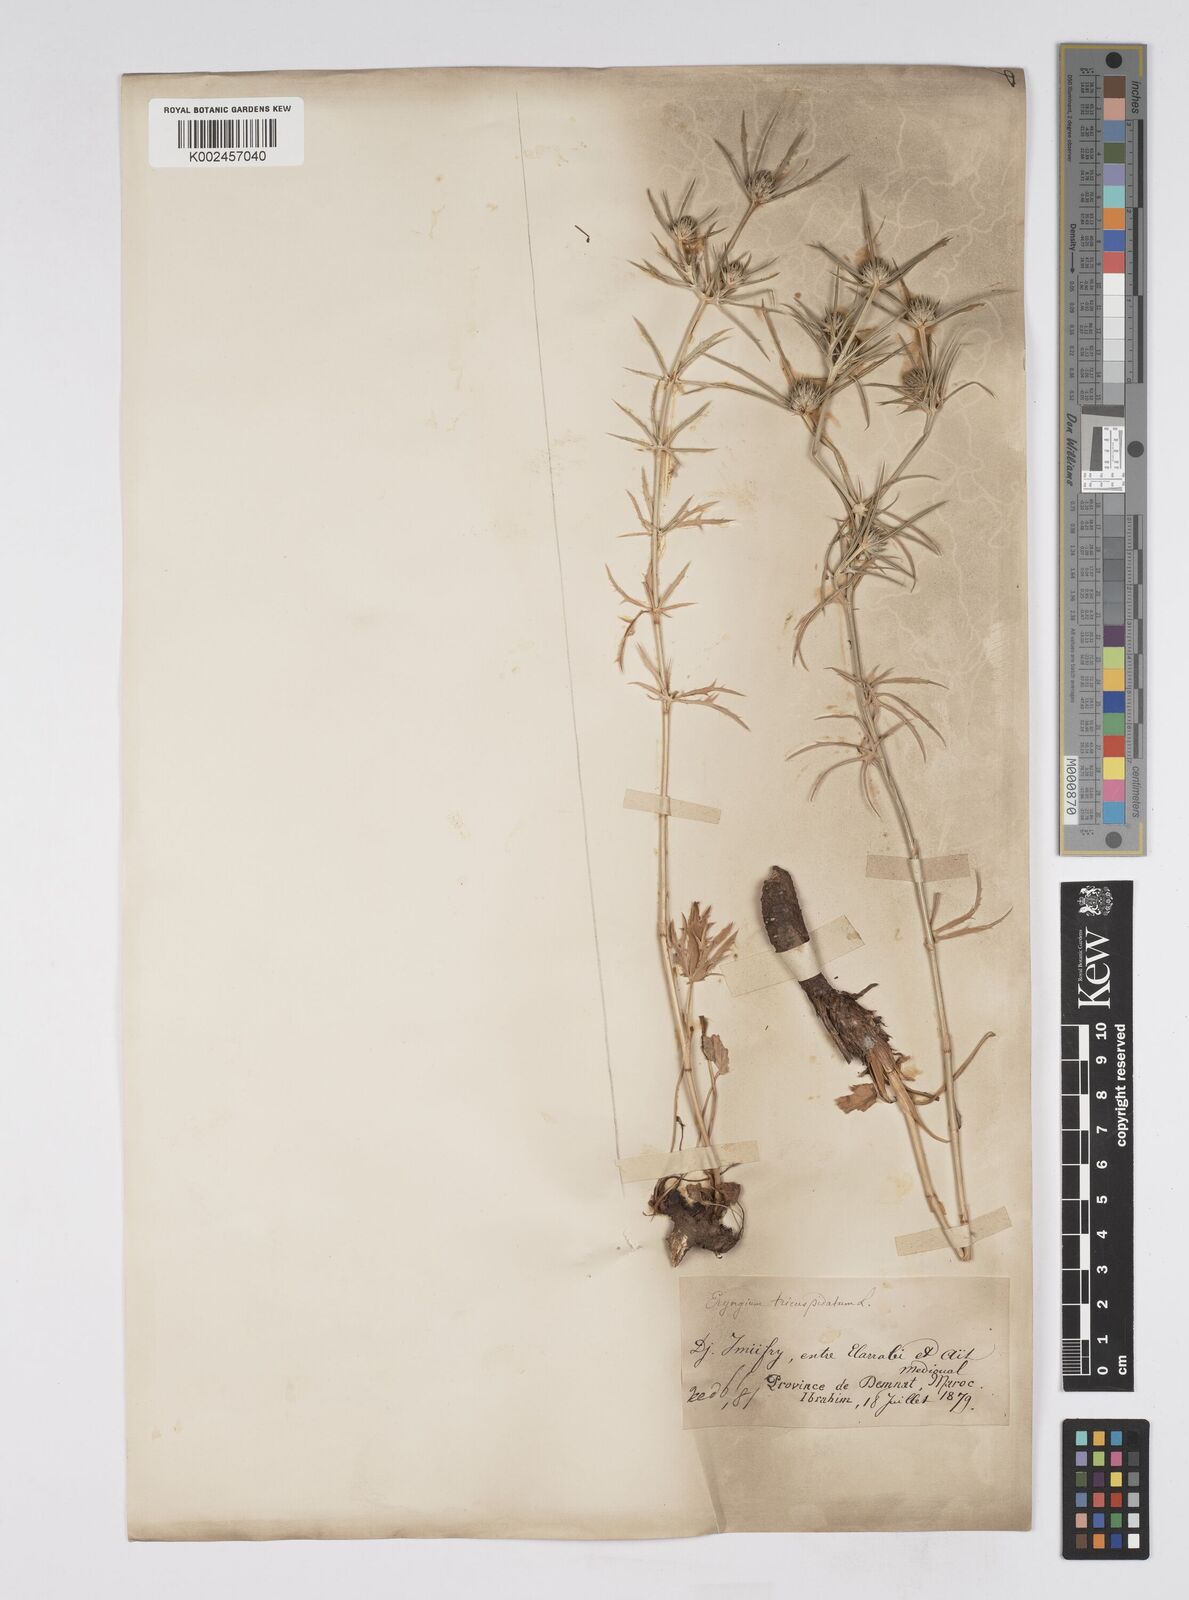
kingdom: Plantae
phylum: Tracheophyta
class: Magnoliopsida
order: Apiales
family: Apiaceae
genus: Eryngium
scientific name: Eryngium tricuspidatum
